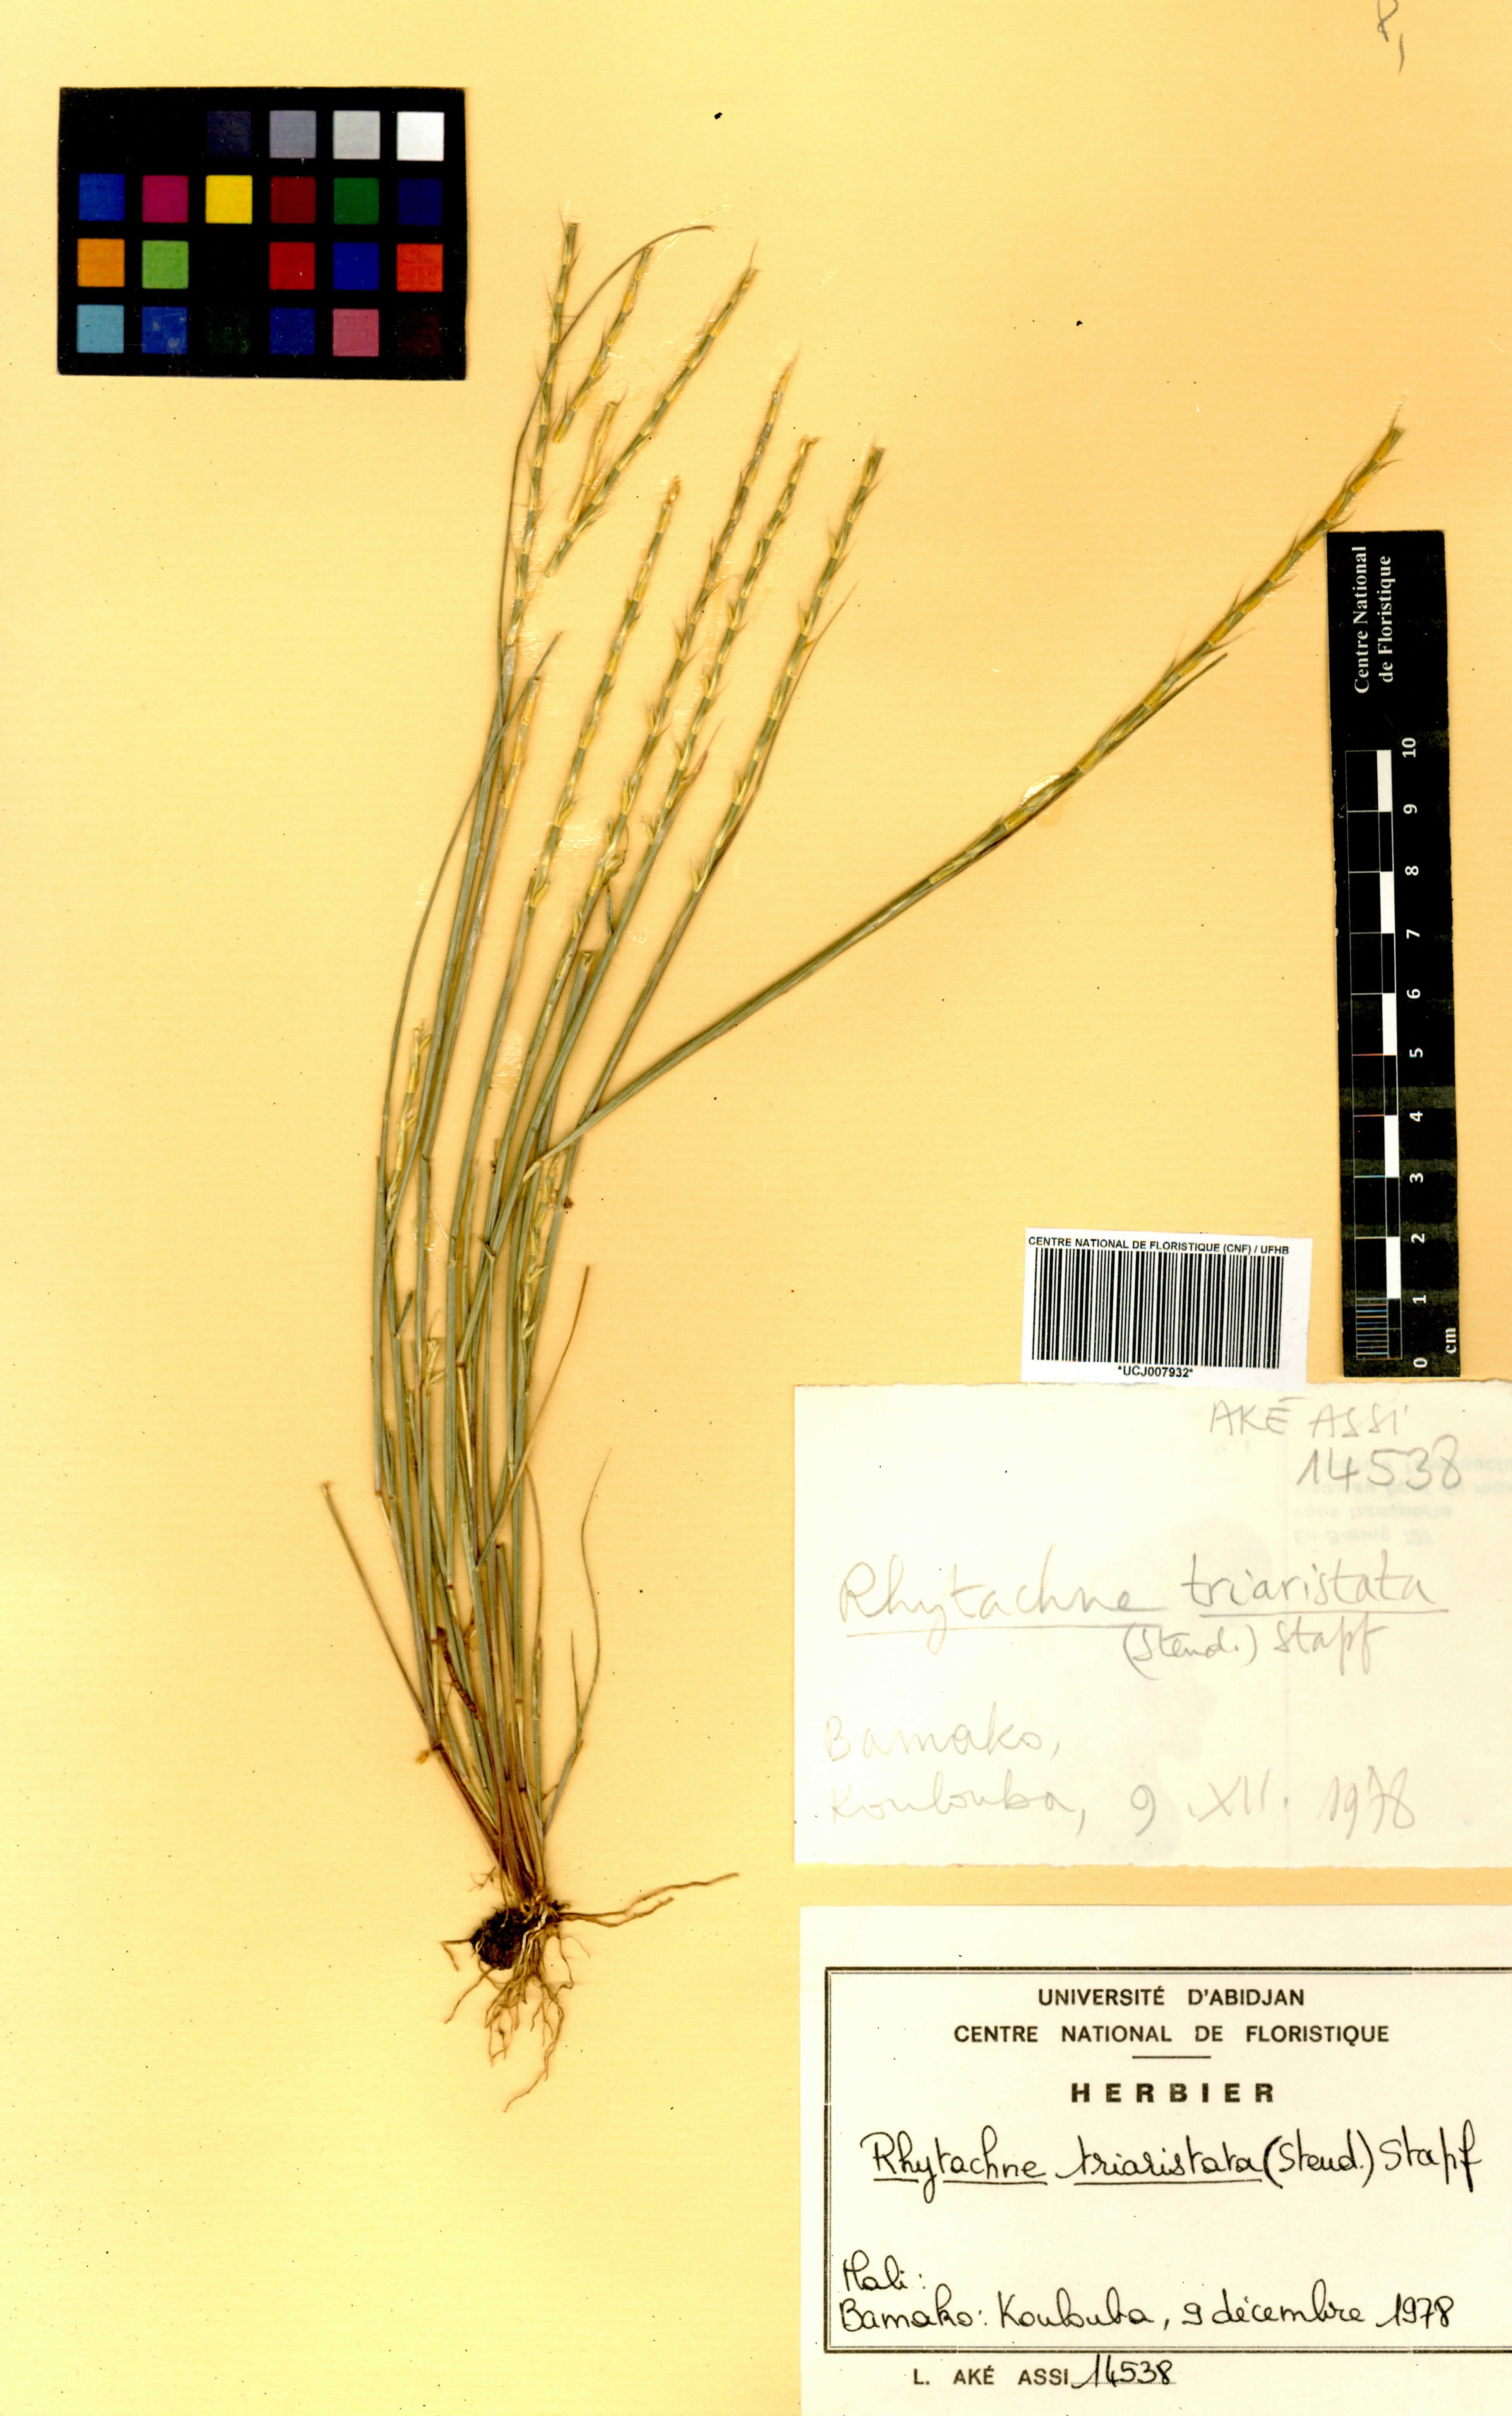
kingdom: Plantae
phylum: Tracheophyta
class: Liliopsida
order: Poales
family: Poaceae
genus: Rhytachne
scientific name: Rhytachne triaristata
